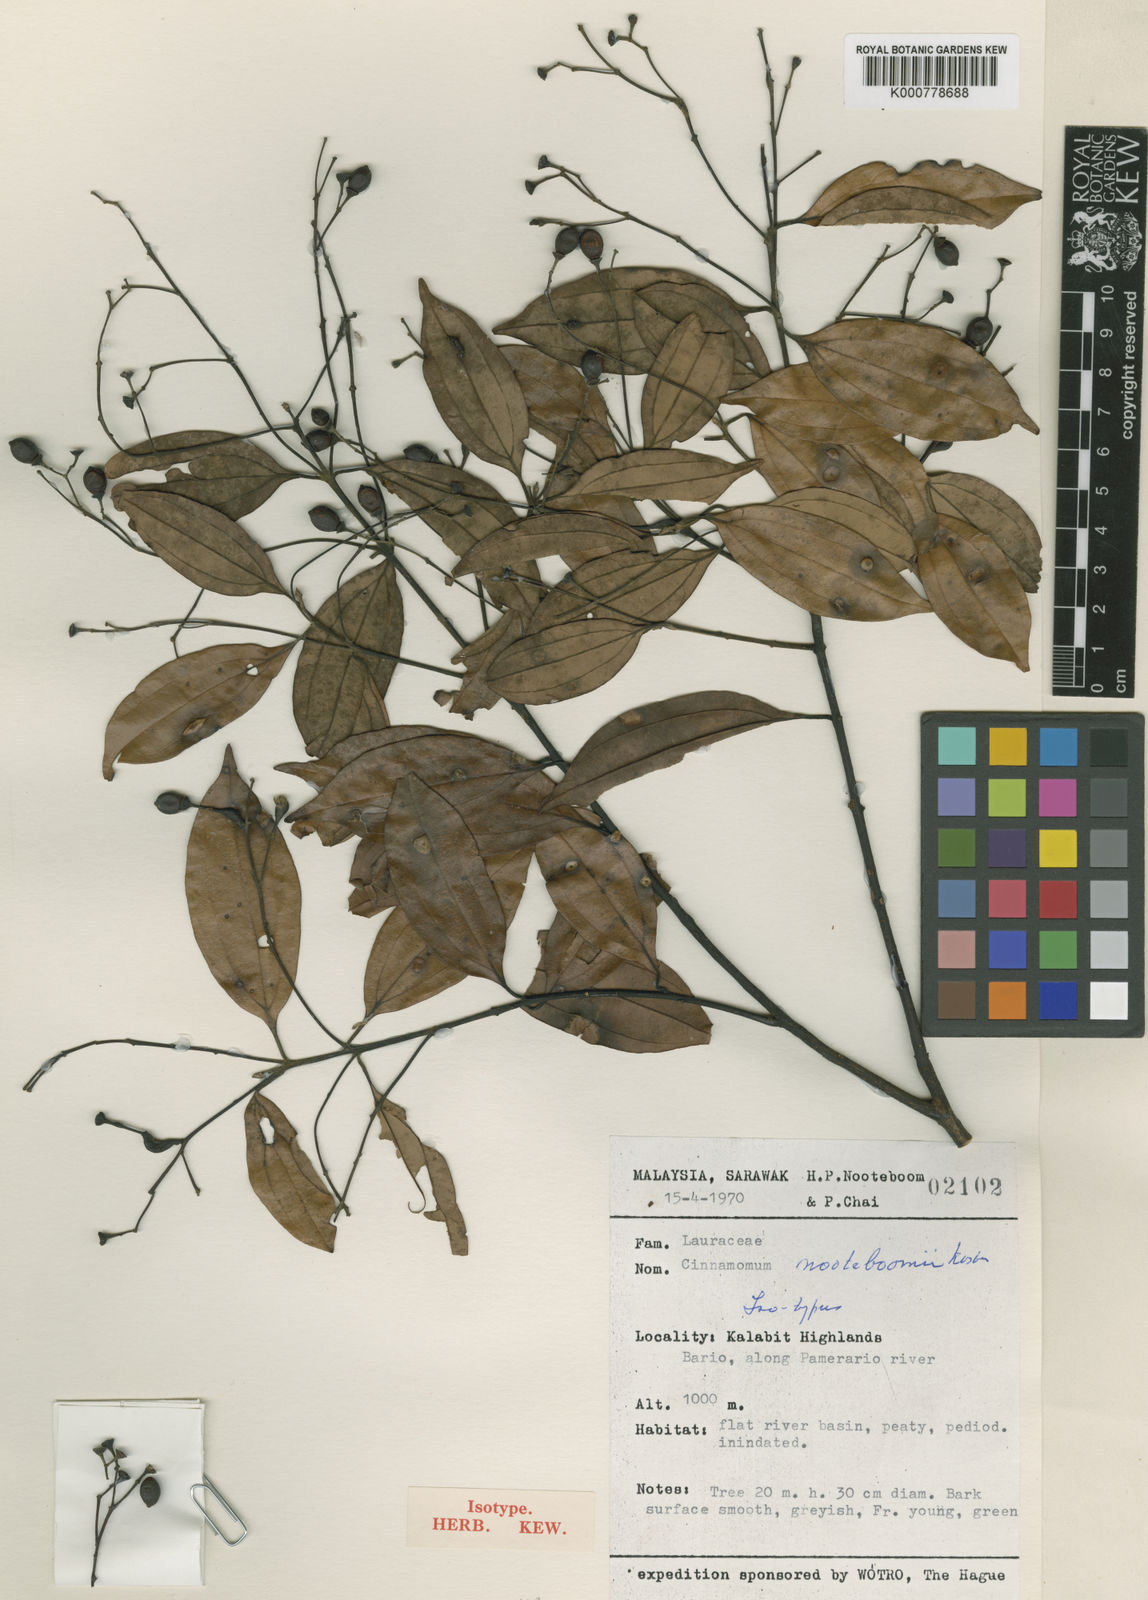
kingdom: Plantae
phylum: Tracheophyta
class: Magnoliopsida
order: Laurales
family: Lauraceae
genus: Cinnamomum
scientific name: Cinnamomum subavenium
